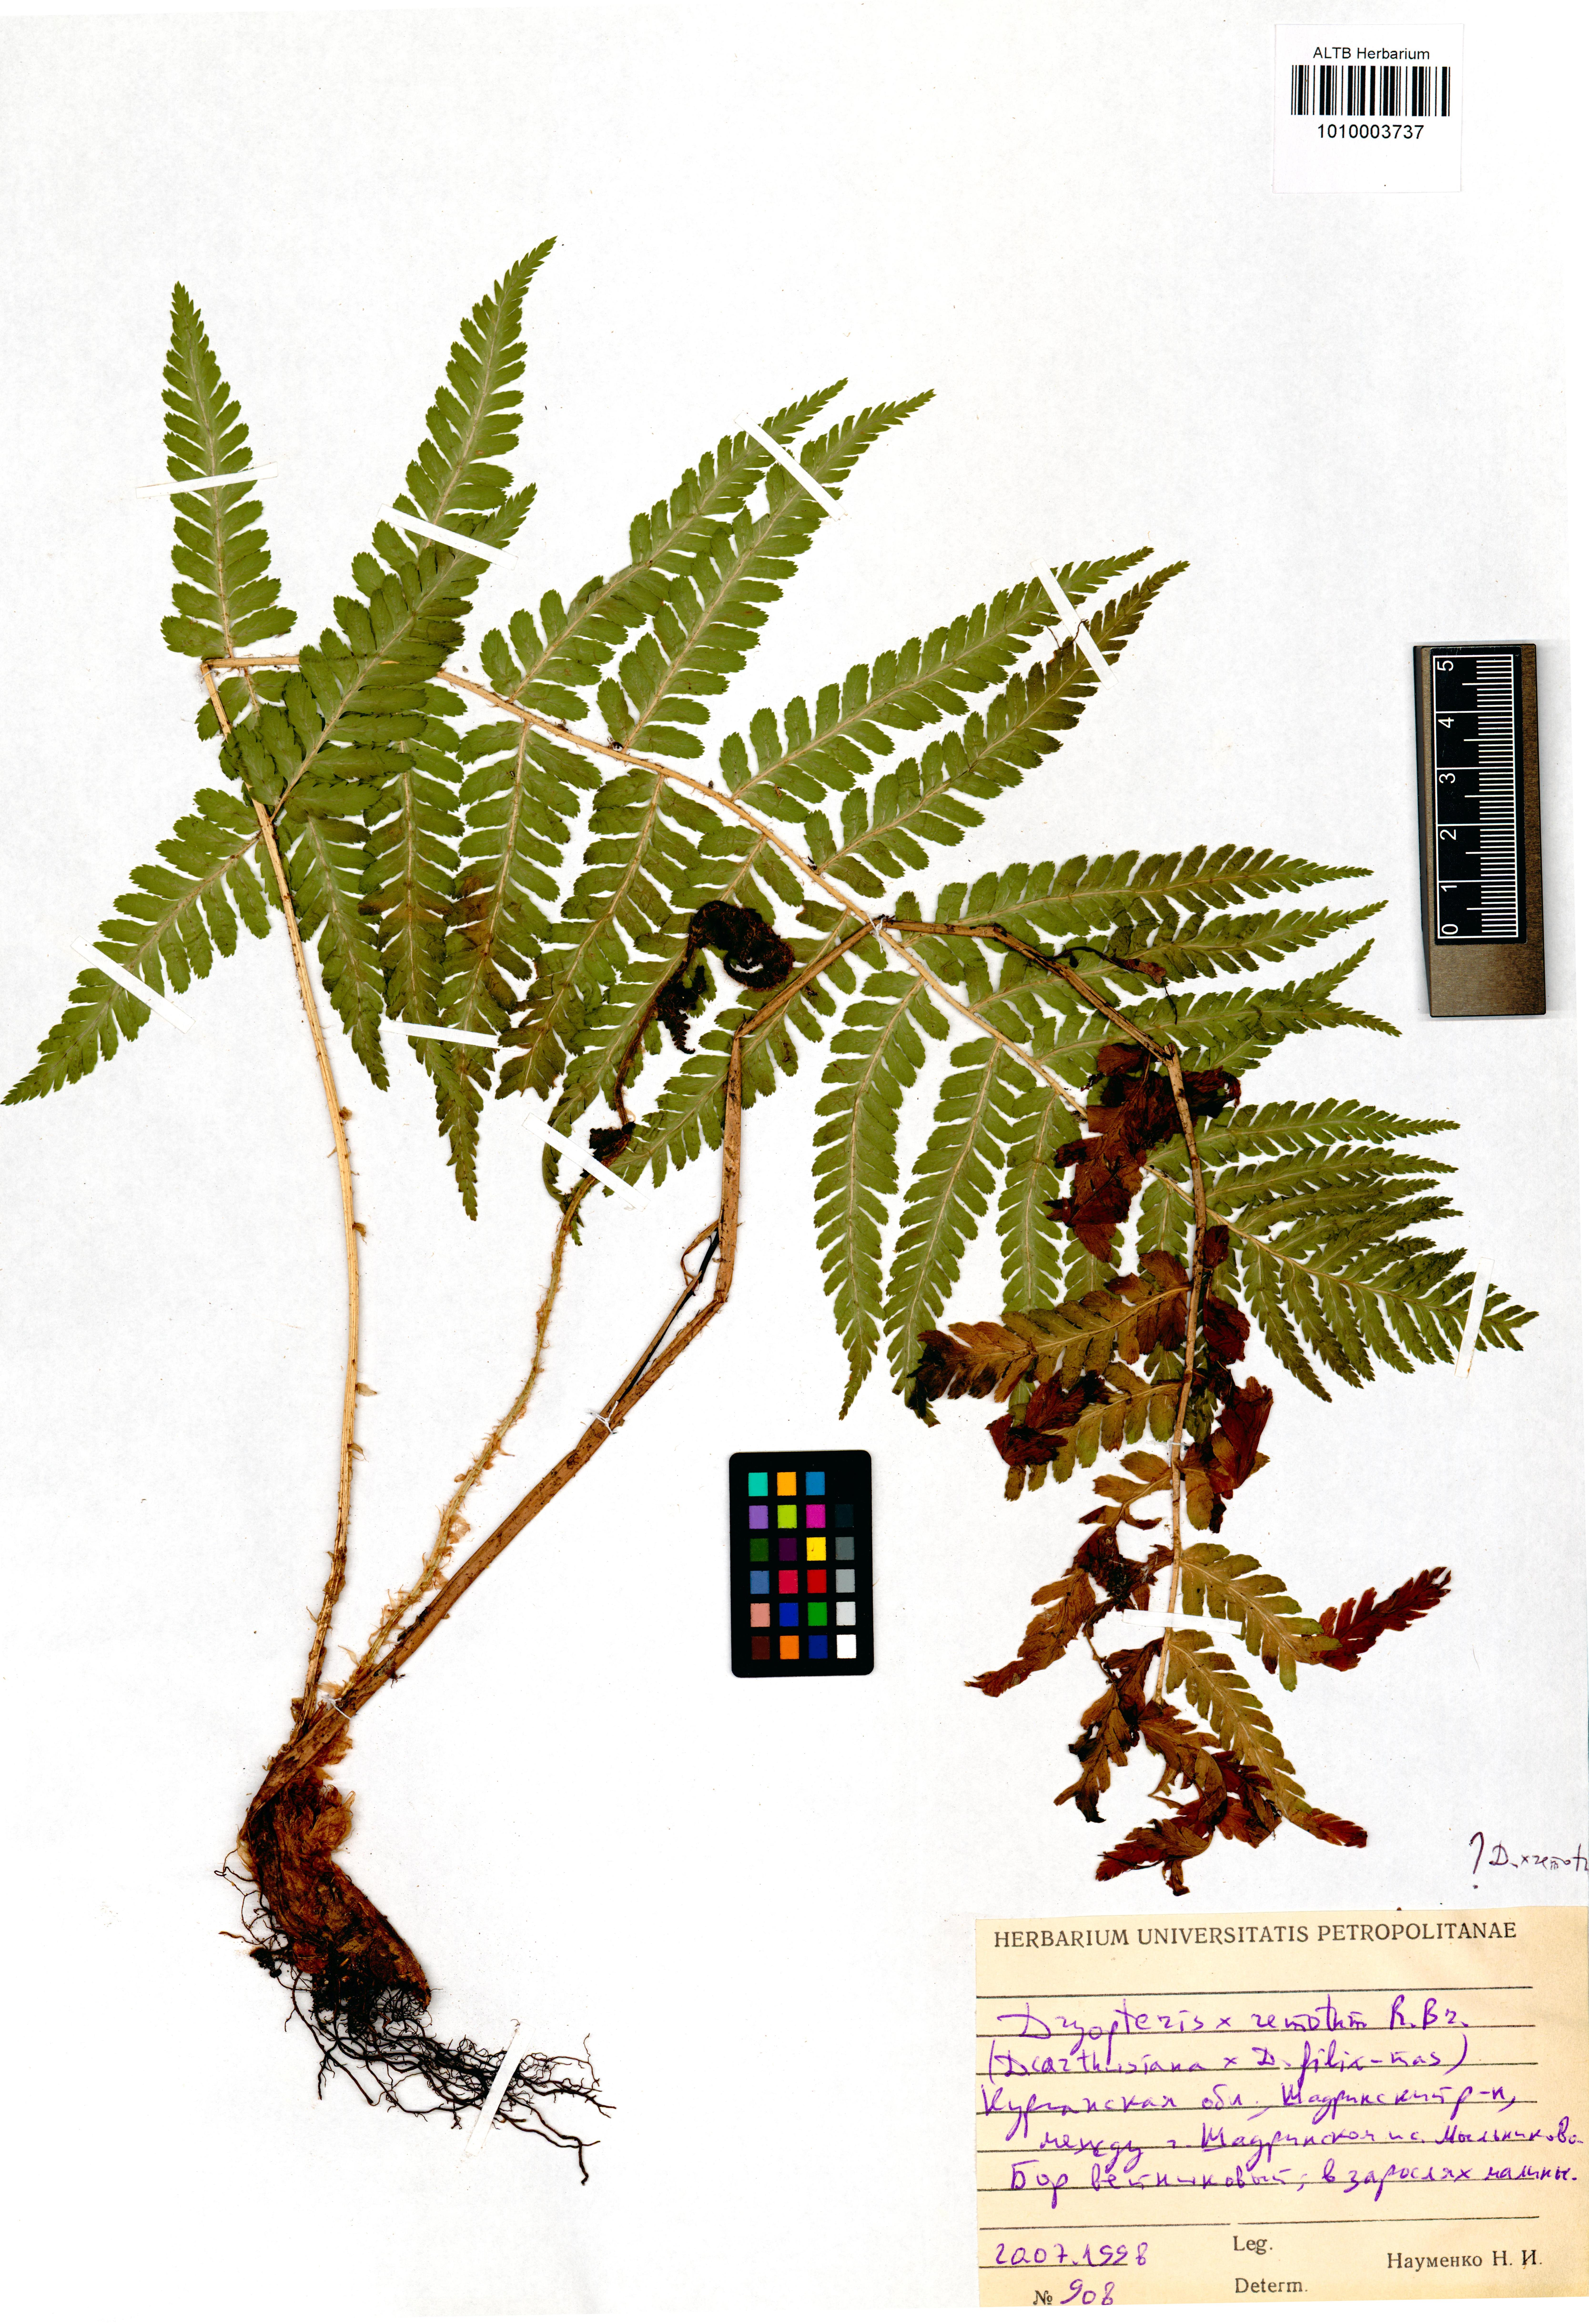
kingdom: Plantae
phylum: Tracheophyta
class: Polypodiopsida
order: Polypodiales
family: Dryopteridaceae
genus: Dryopteris
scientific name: Dryopteris remota
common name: Scaly buckler-fern
